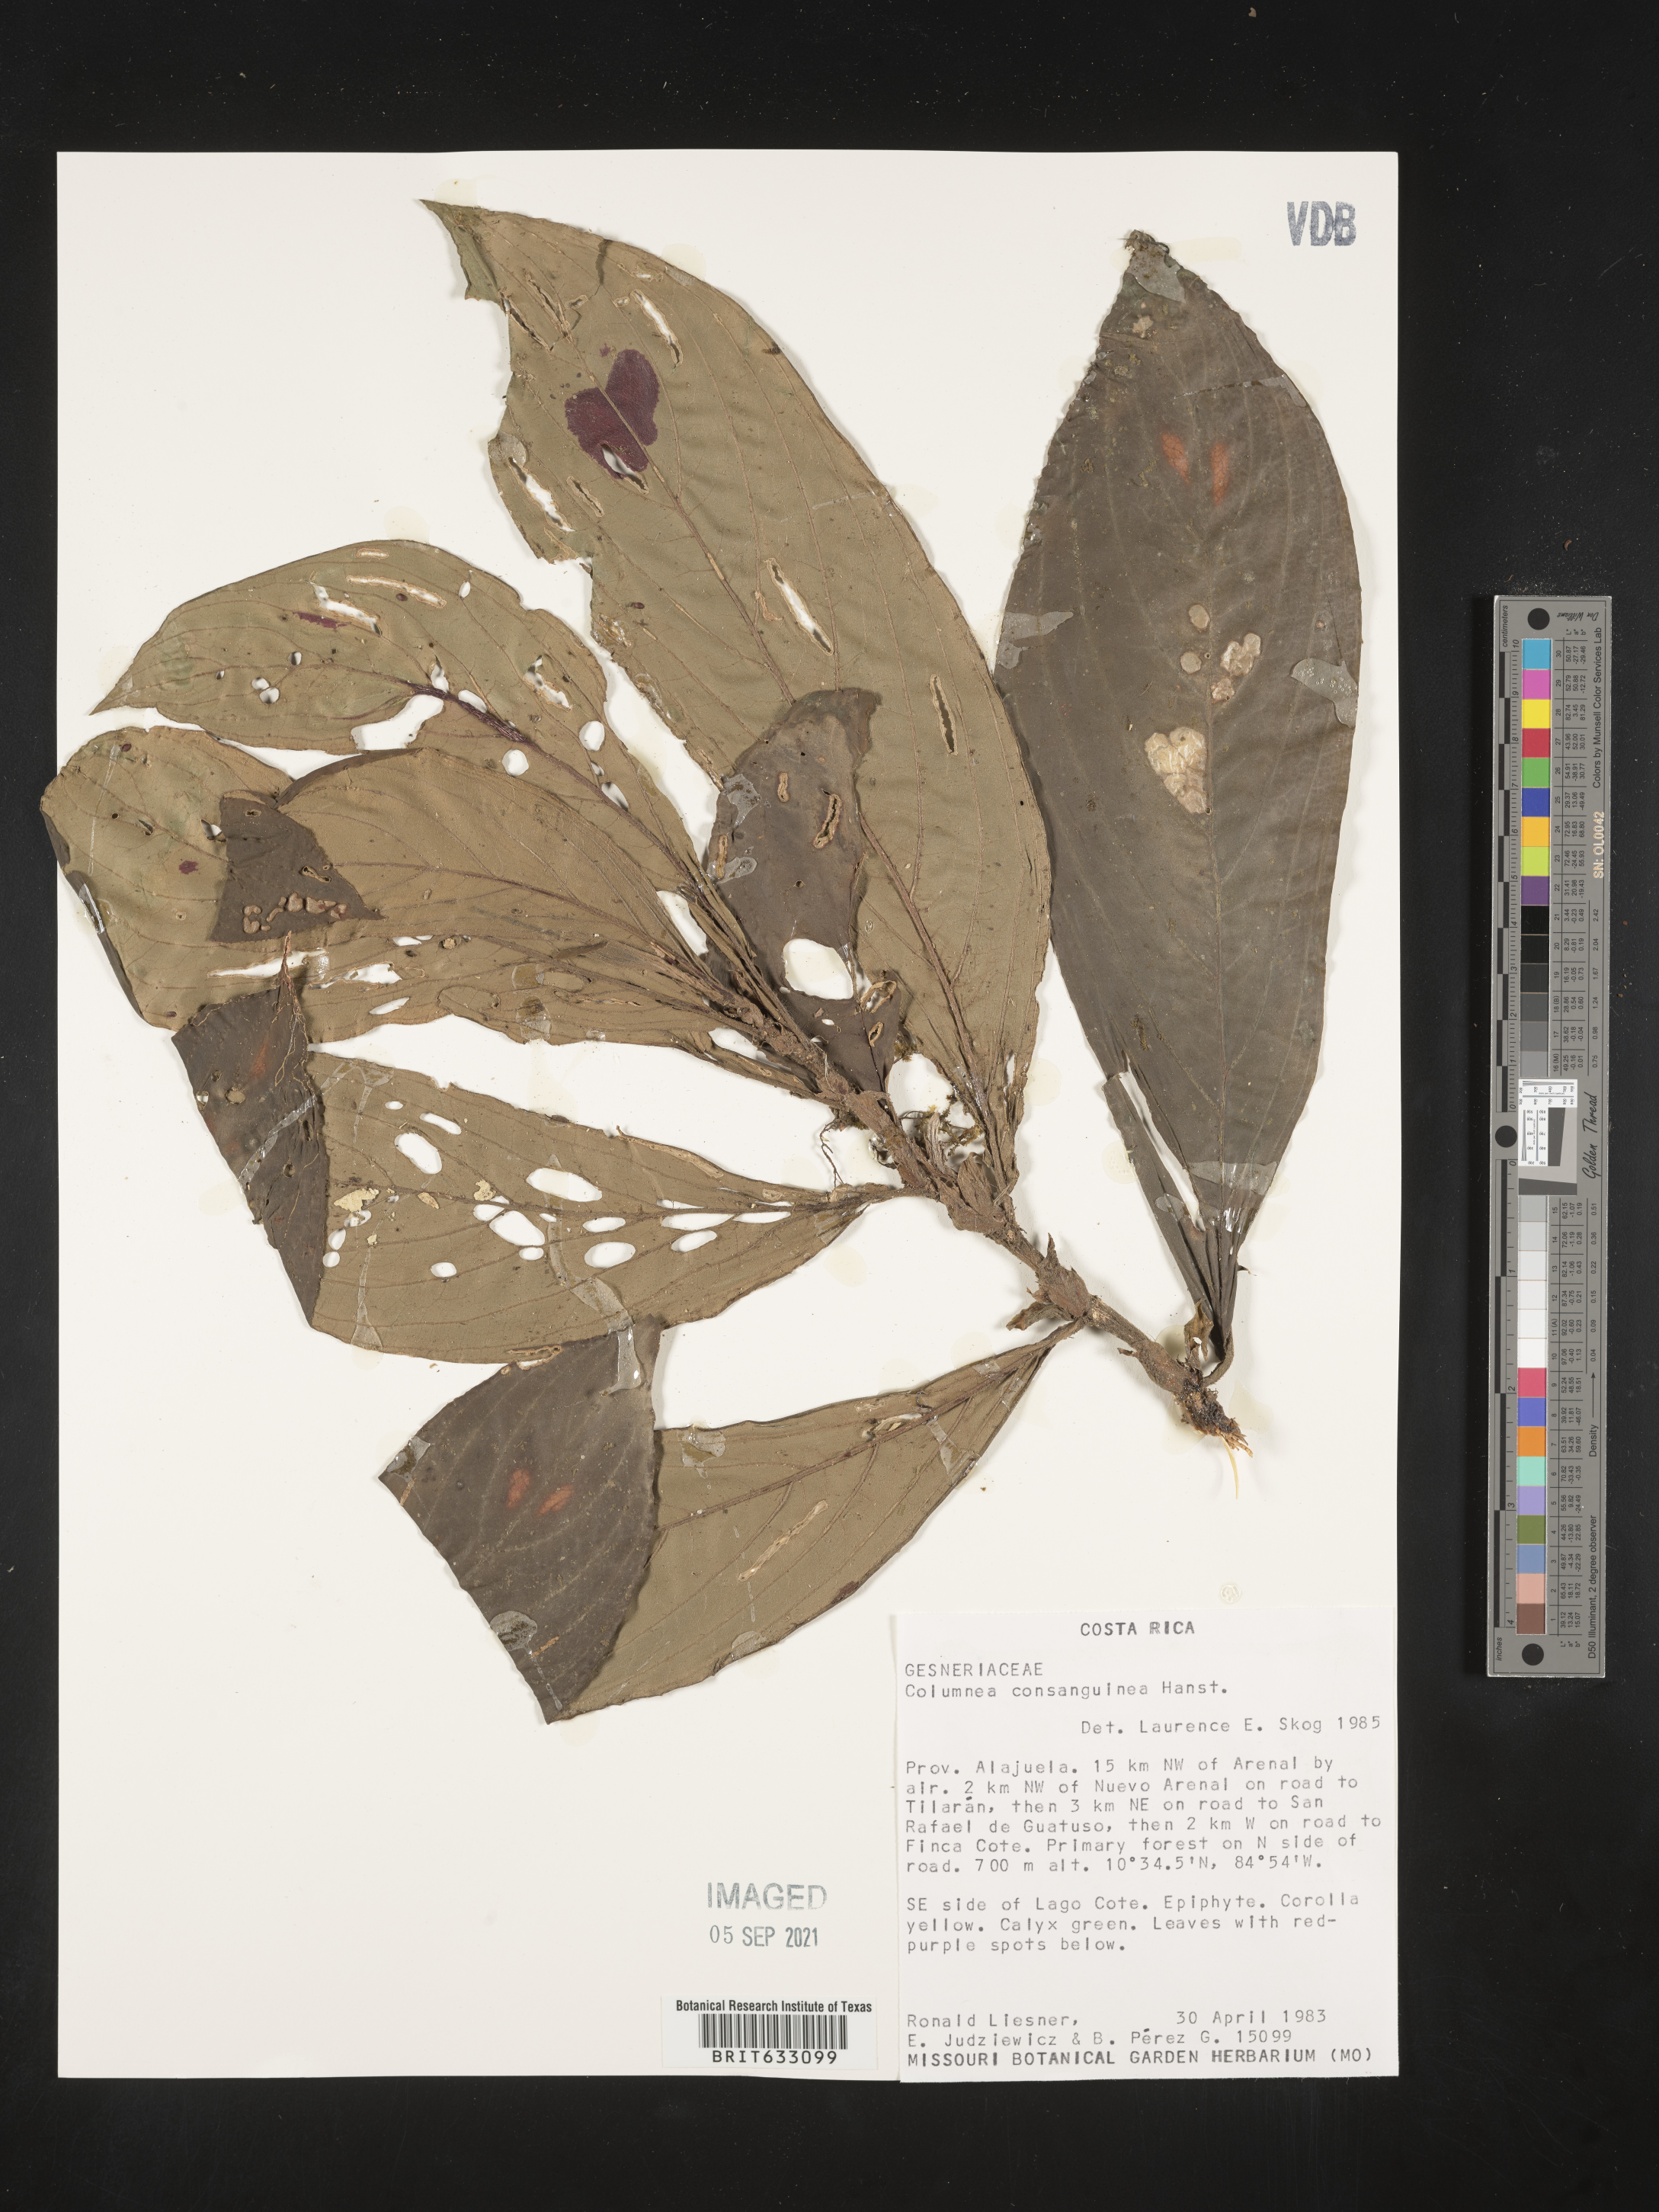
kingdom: Plantae
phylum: Tracheophyta
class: Magnoliopsida
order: Lamiales
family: Gesneriaceae
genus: Columnea
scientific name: Columnea
